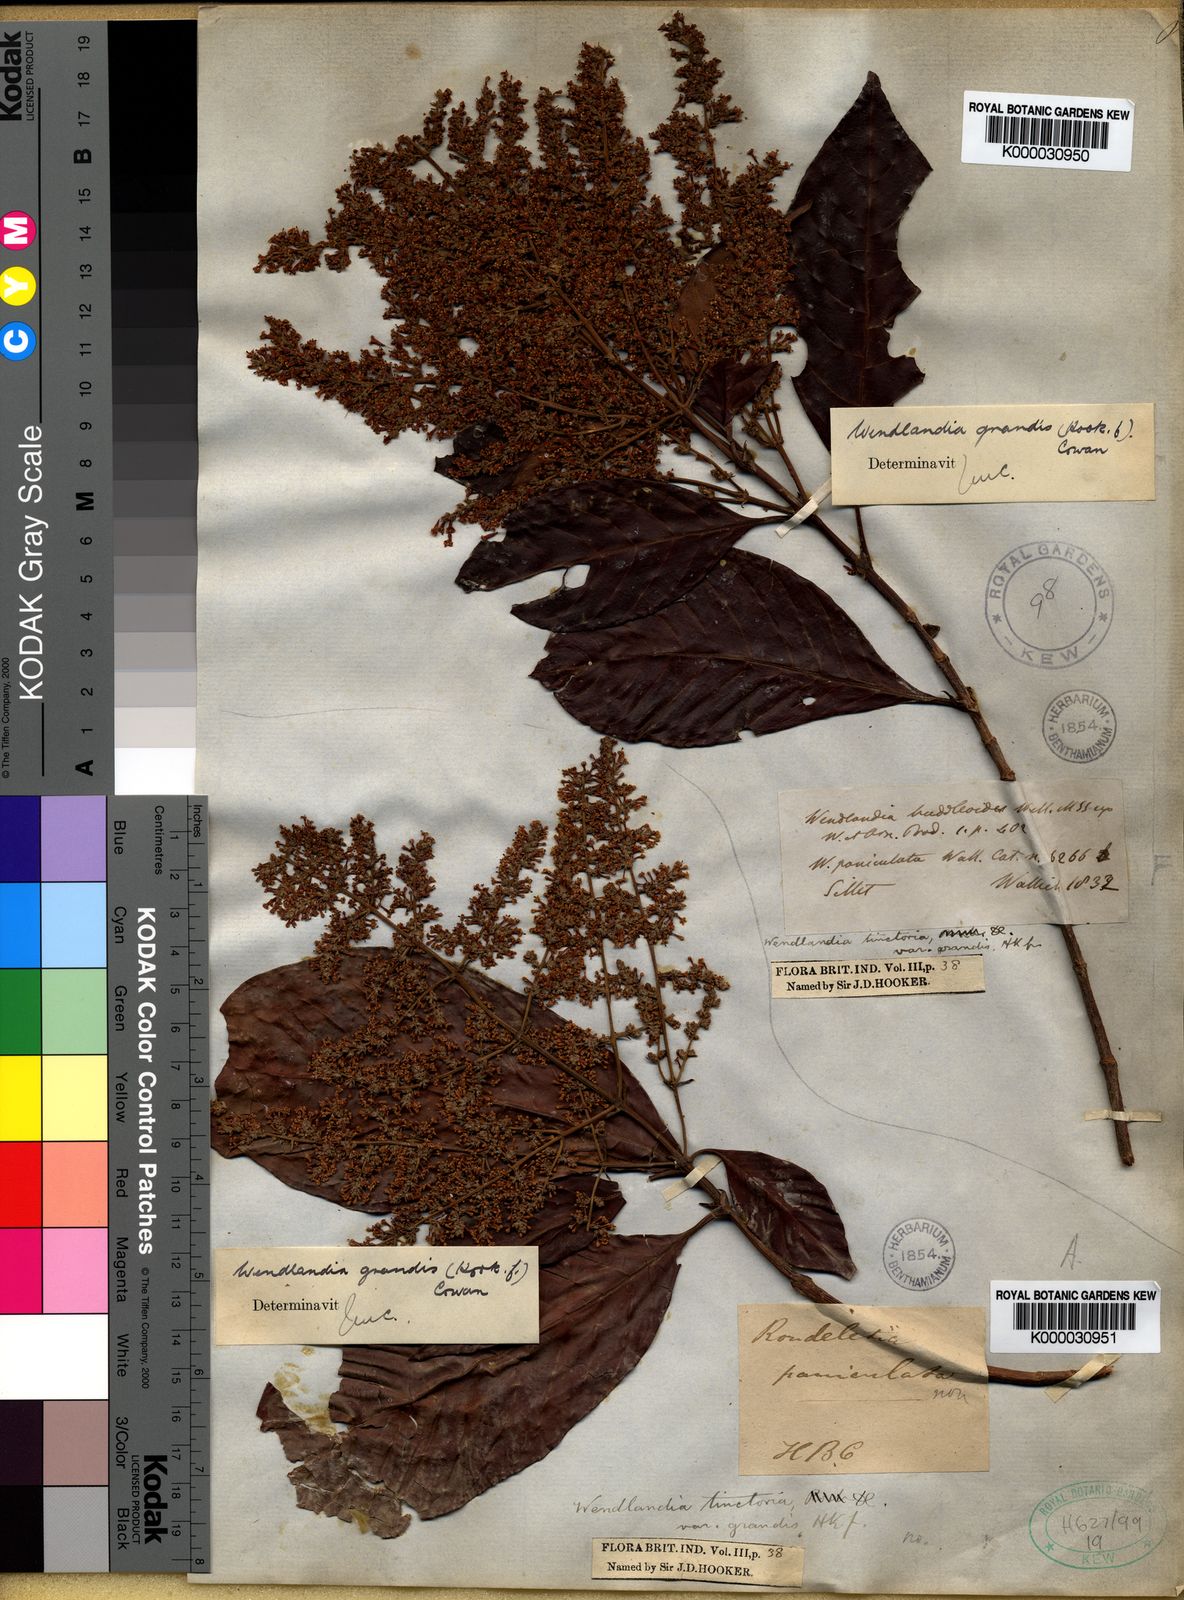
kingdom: Plantae
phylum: Tracheophyta
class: Magnoliopsida
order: Gentianales
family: Rubiaceae
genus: Wendlandia
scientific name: Wendlandia tinctoria
